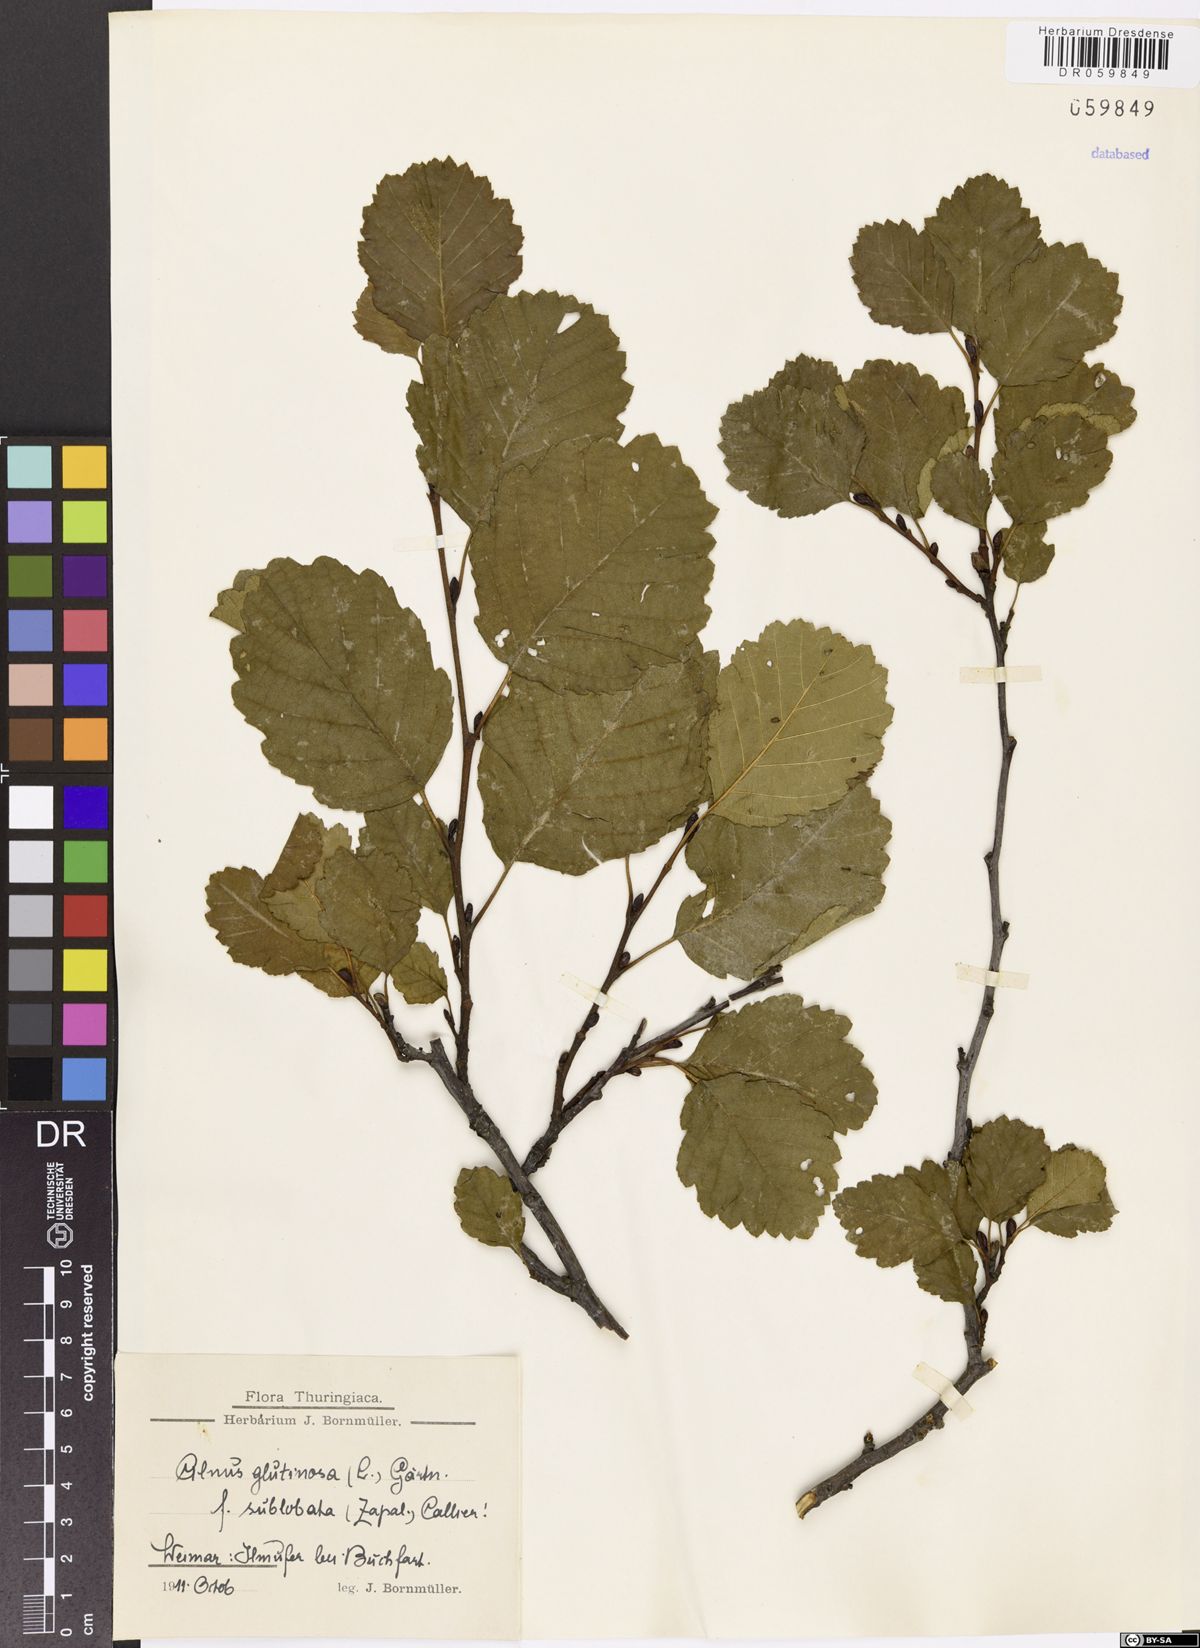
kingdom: Plantae
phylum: Tracheophyta
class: Magnoliopsida
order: Fagales
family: Betulaceae
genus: Alnus
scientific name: Alnus glutinosa
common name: Black alder
